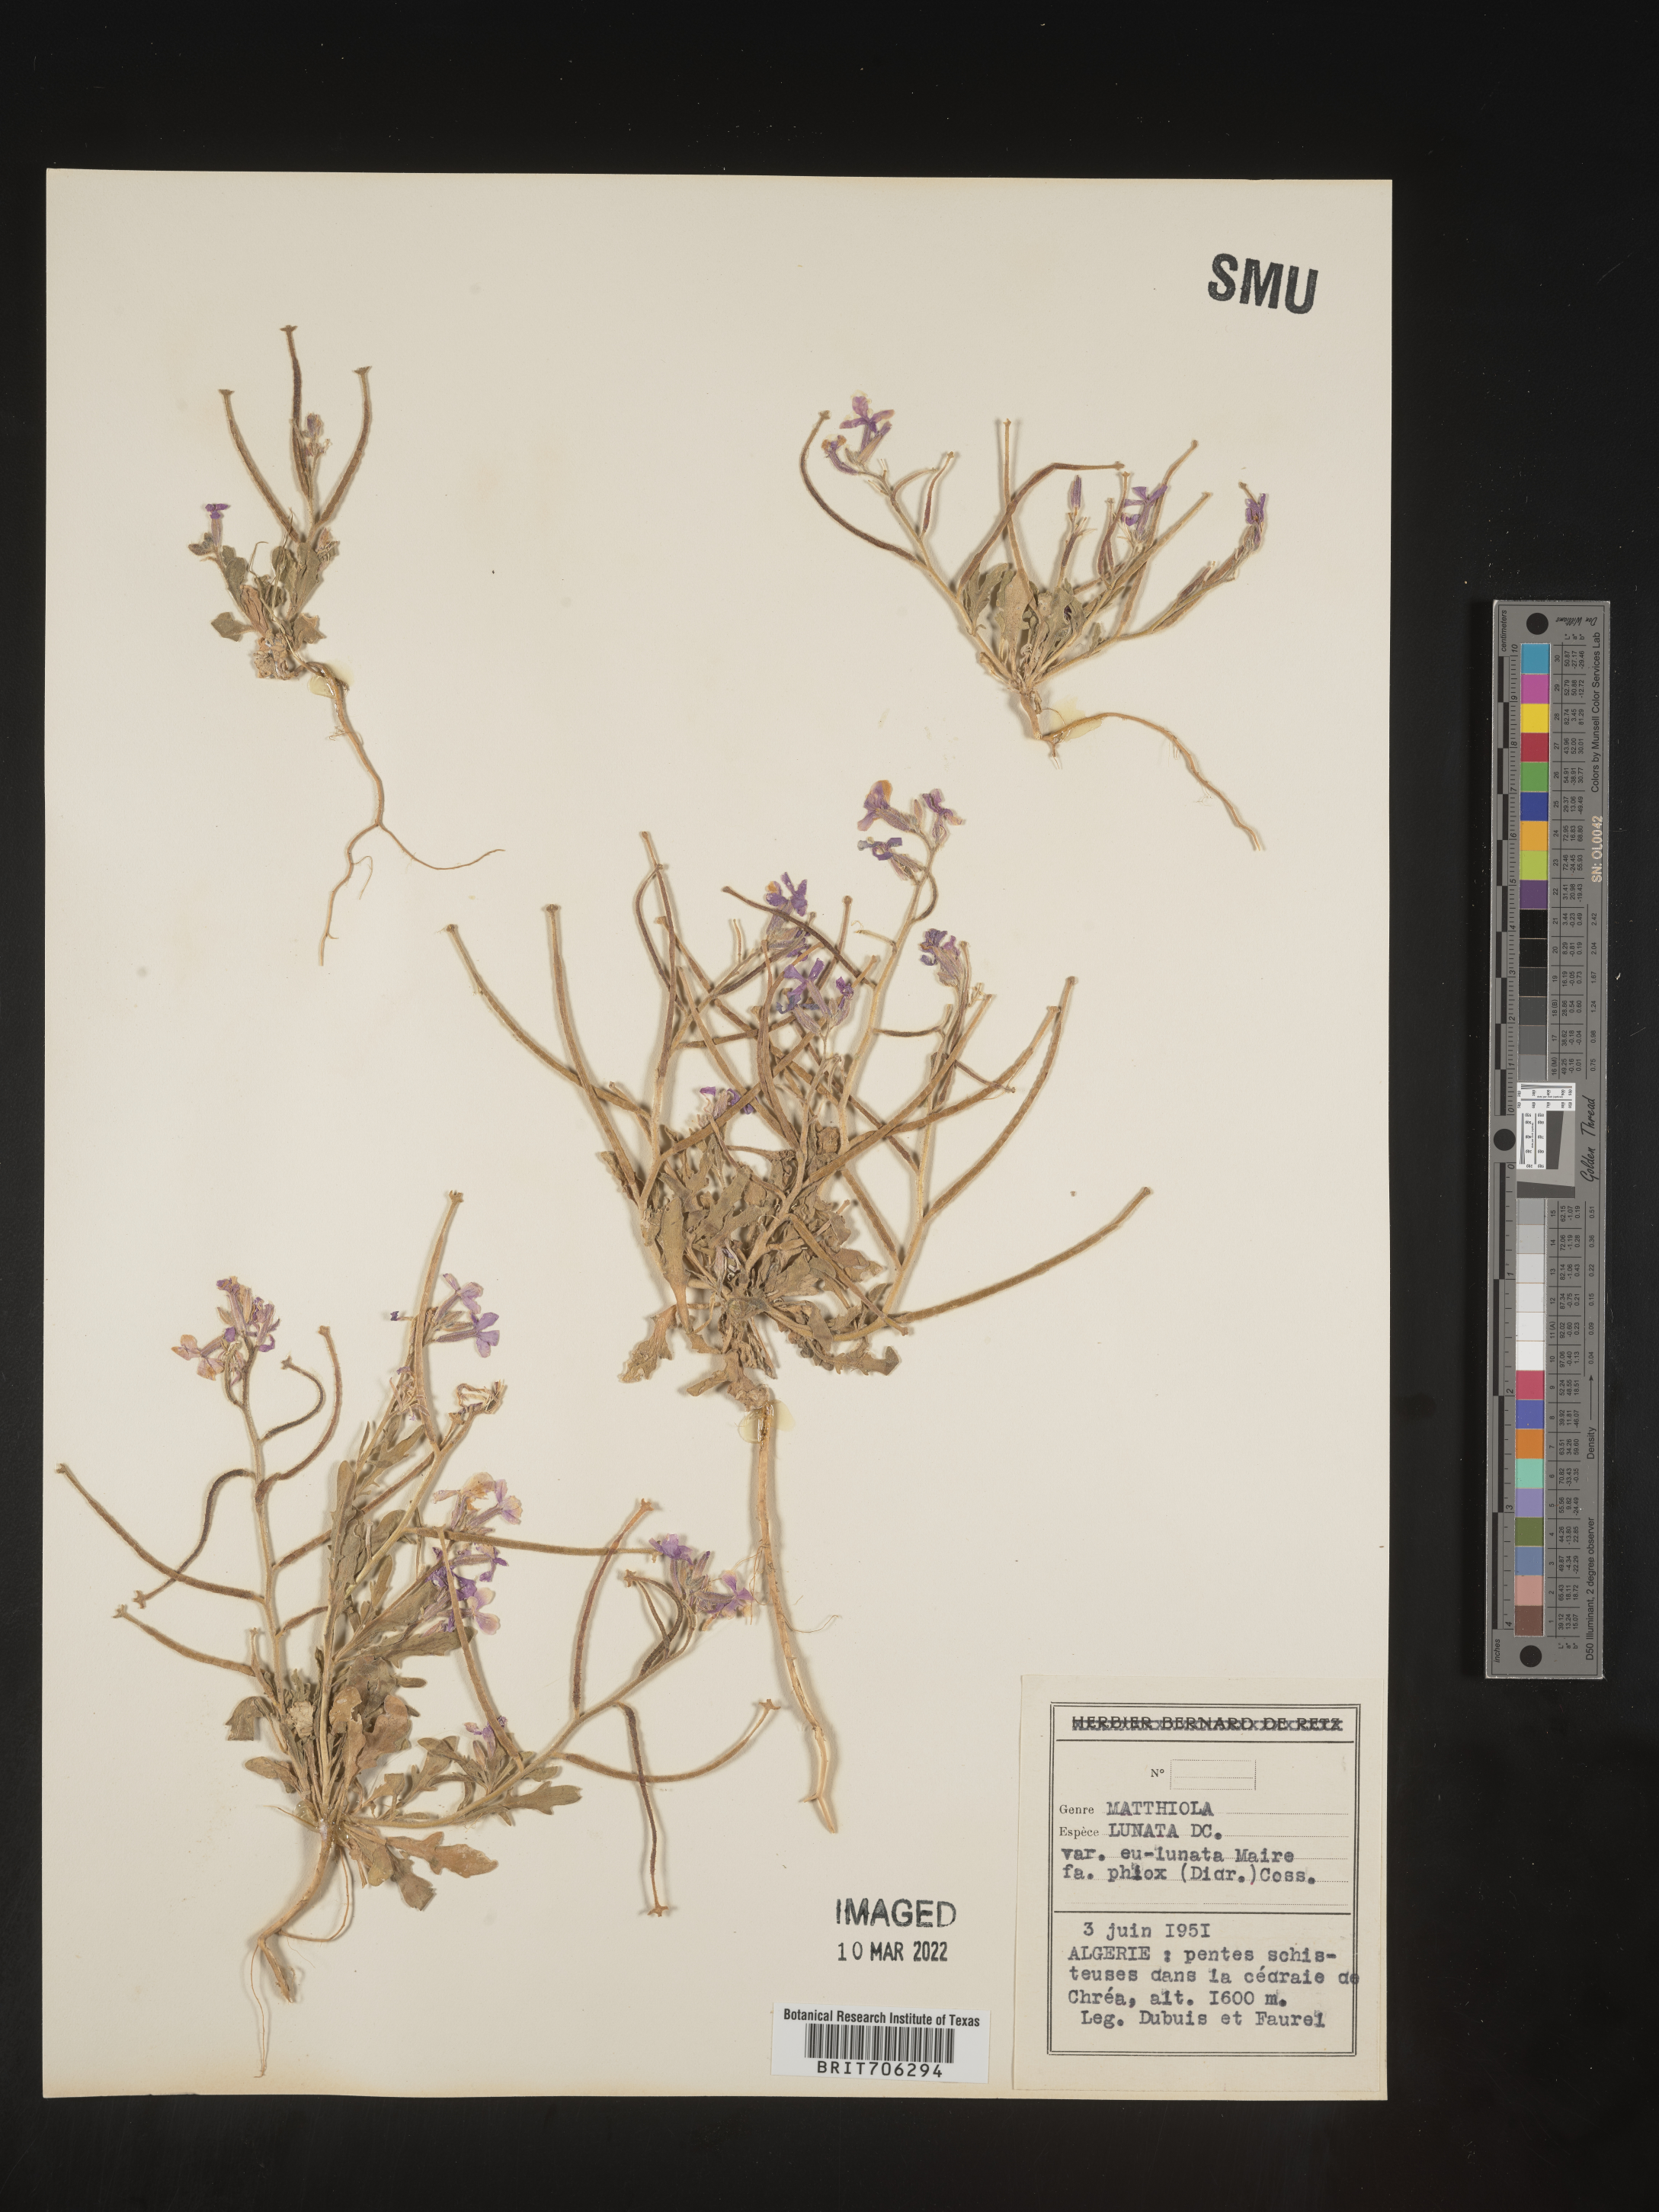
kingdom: Plantae
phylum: Tracheophyta
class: Magnoliopsida
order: Brassicales
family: Brassicaceae
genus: Matthiola
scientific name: Matthiola
